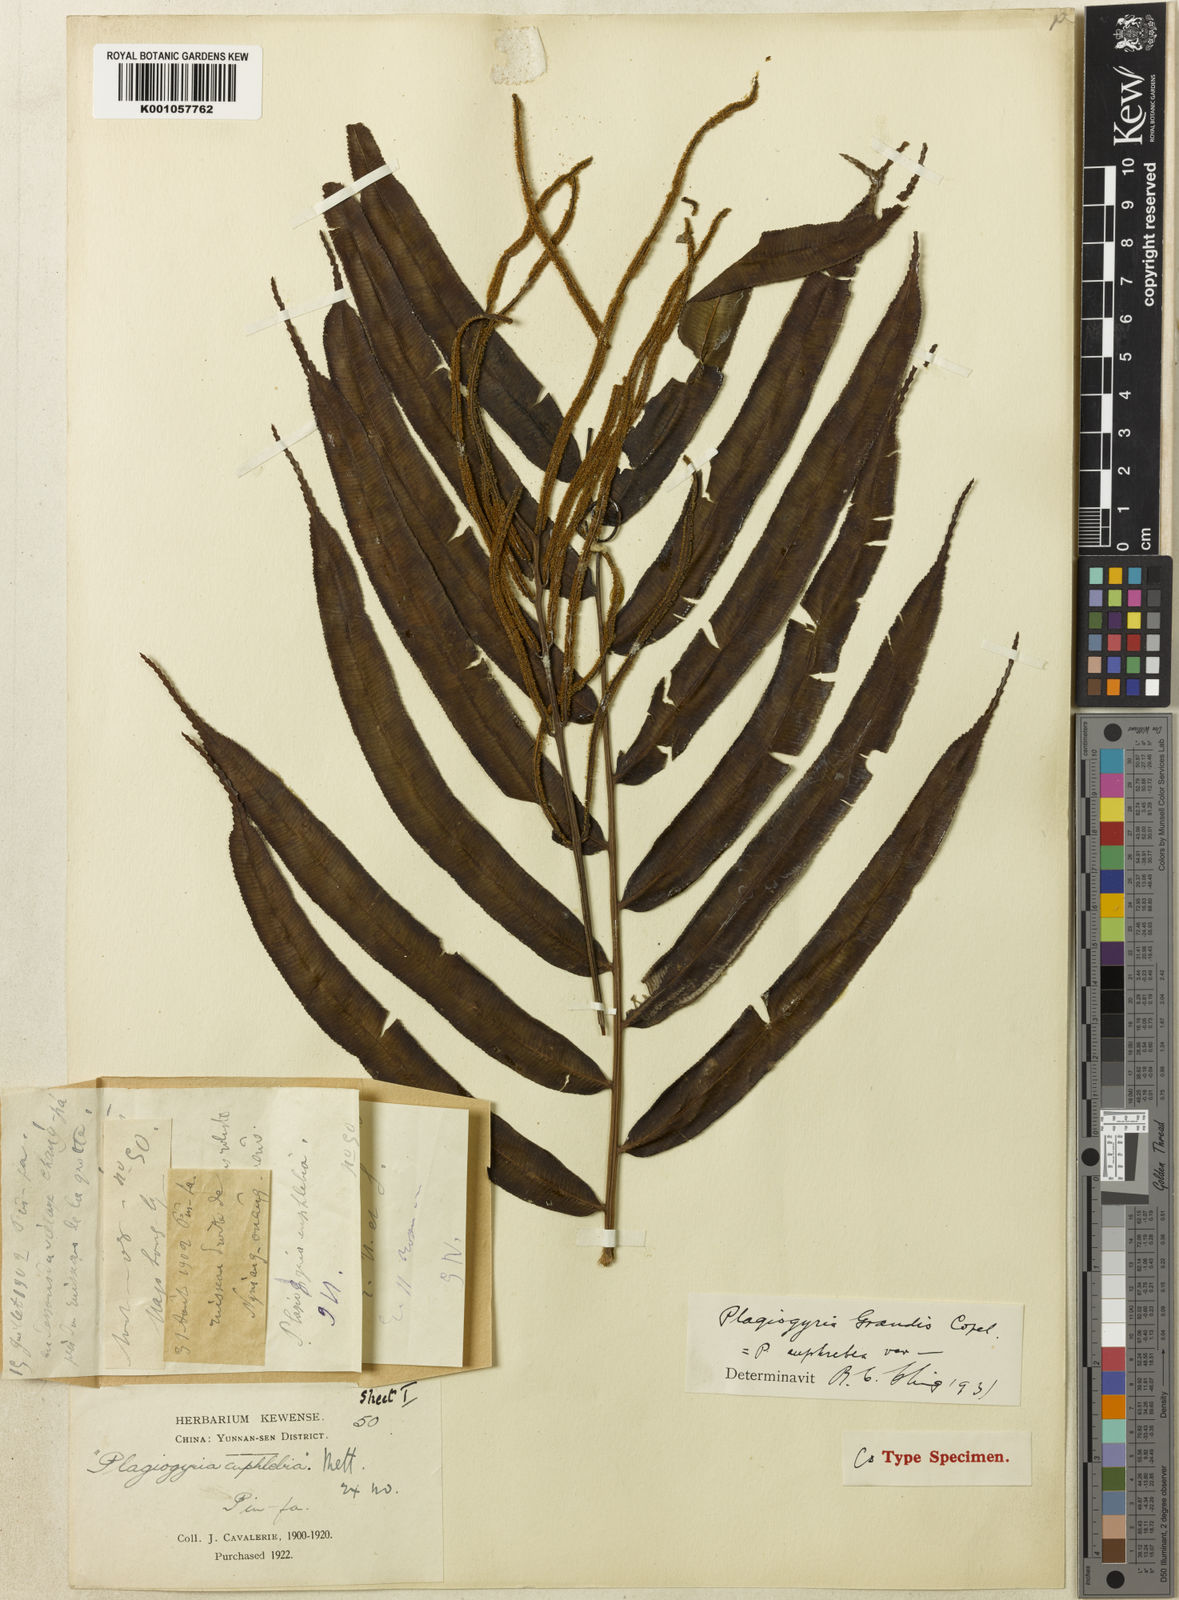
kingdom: Plantae
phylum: Tracheophyta
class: Polypodiopsida
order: Cyatheales
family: Plagiogyriaceae
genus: Plagiogyria
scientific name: Plagiogyria euphlebia
